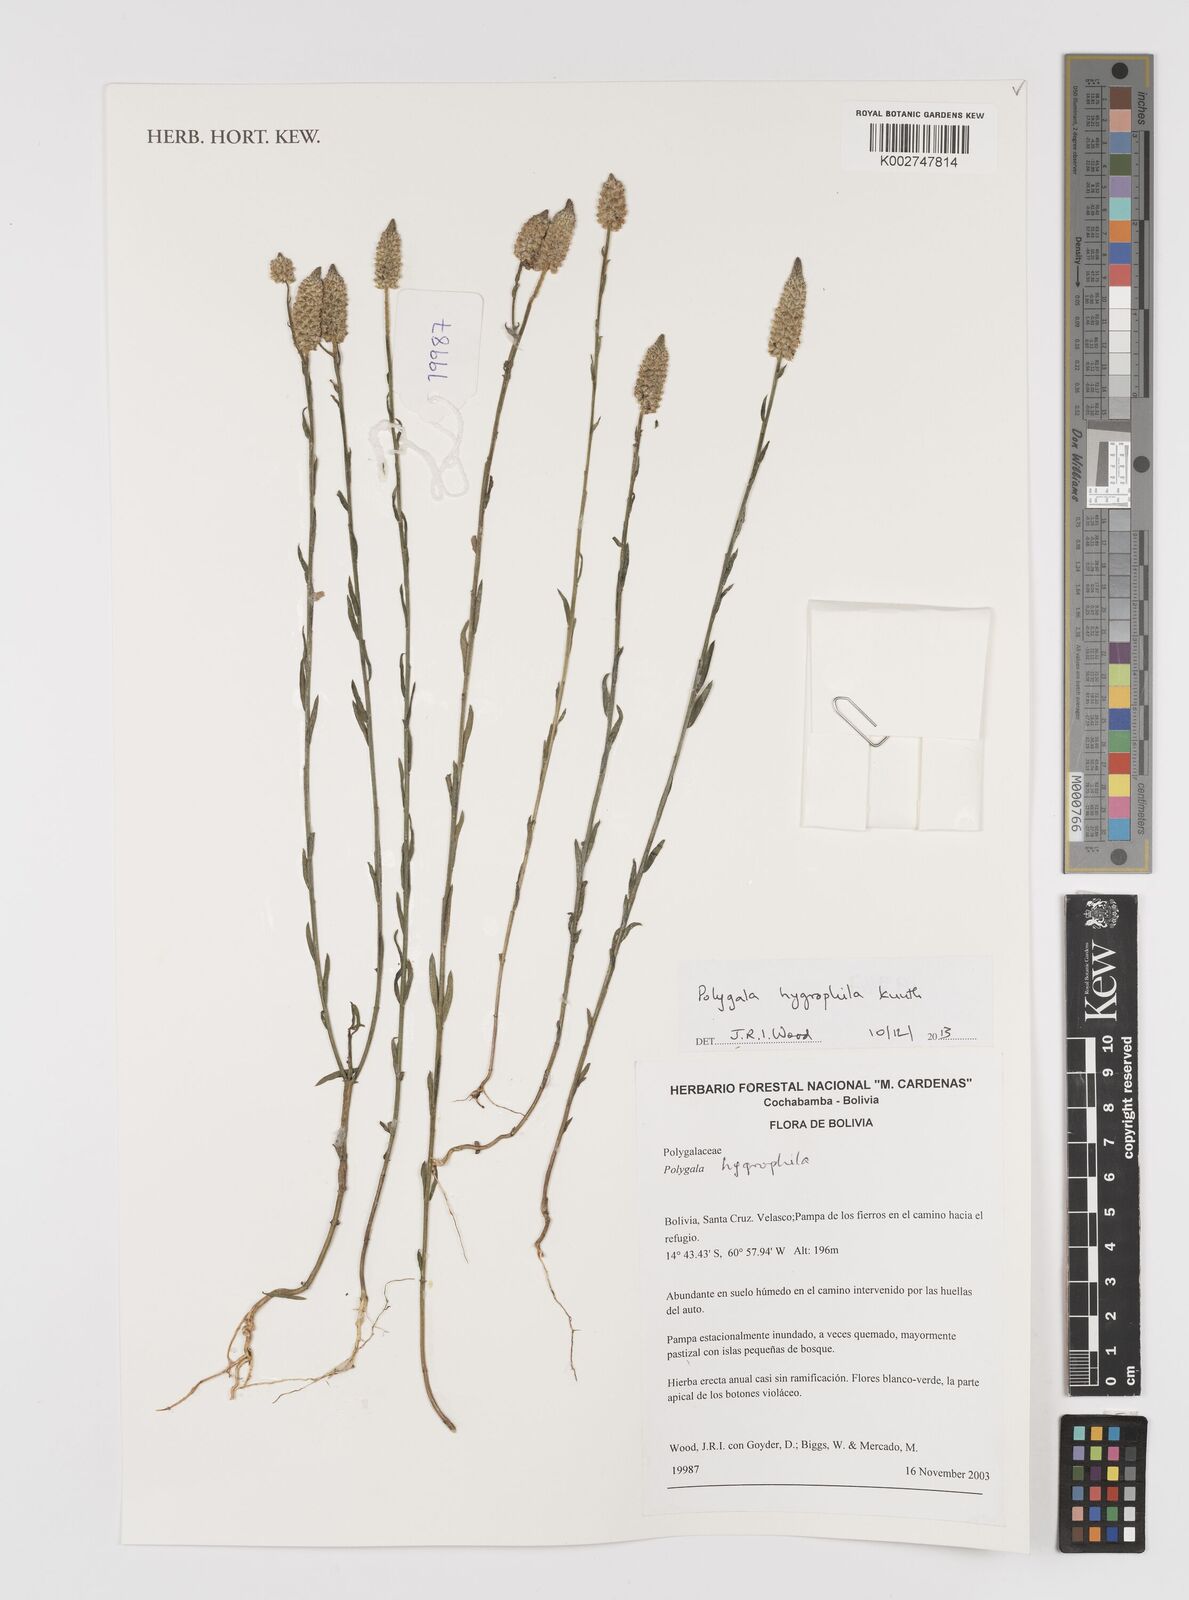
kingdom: Plantae
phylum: Tracheophyta
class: Magnoliopsida
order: Fabales
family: Polygalaceae
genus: Polygala
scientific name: Polygala hygrophila
